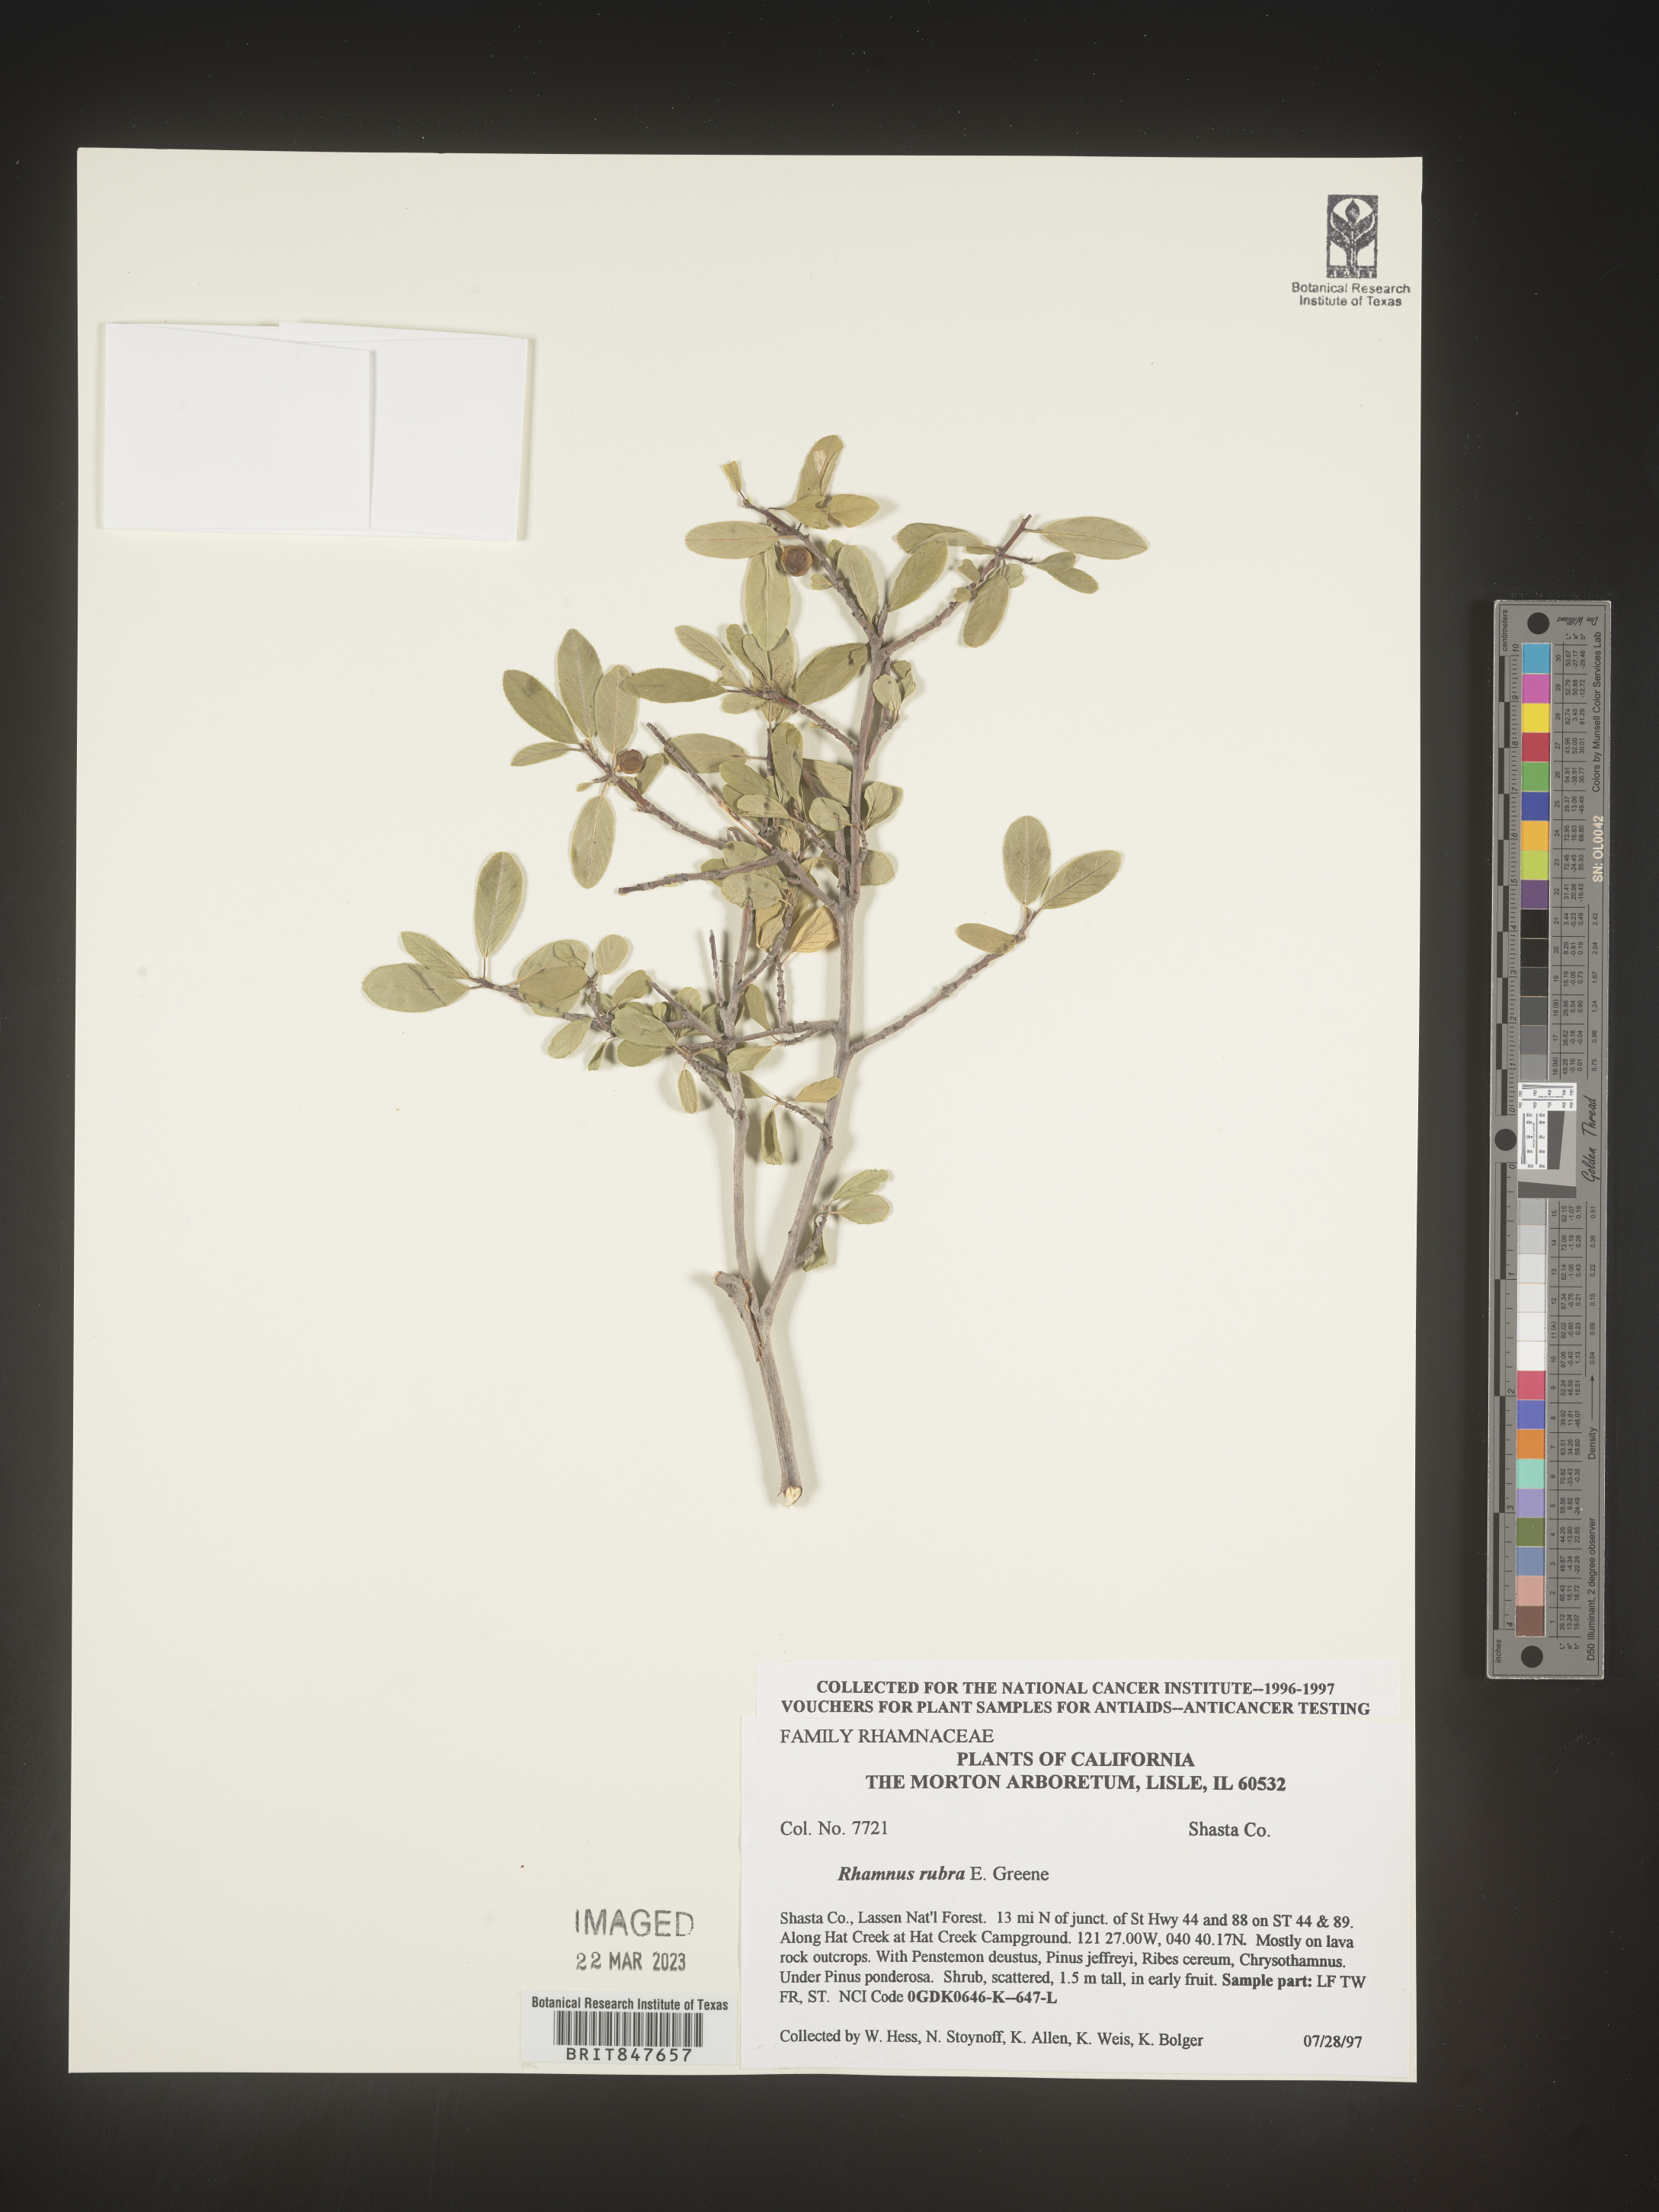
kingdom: Plantae
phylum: Tracheophyta
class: Magnoliopsida
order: Rosales
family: Rhamnaceae
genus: Rhamnus
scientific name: Rhamnus
